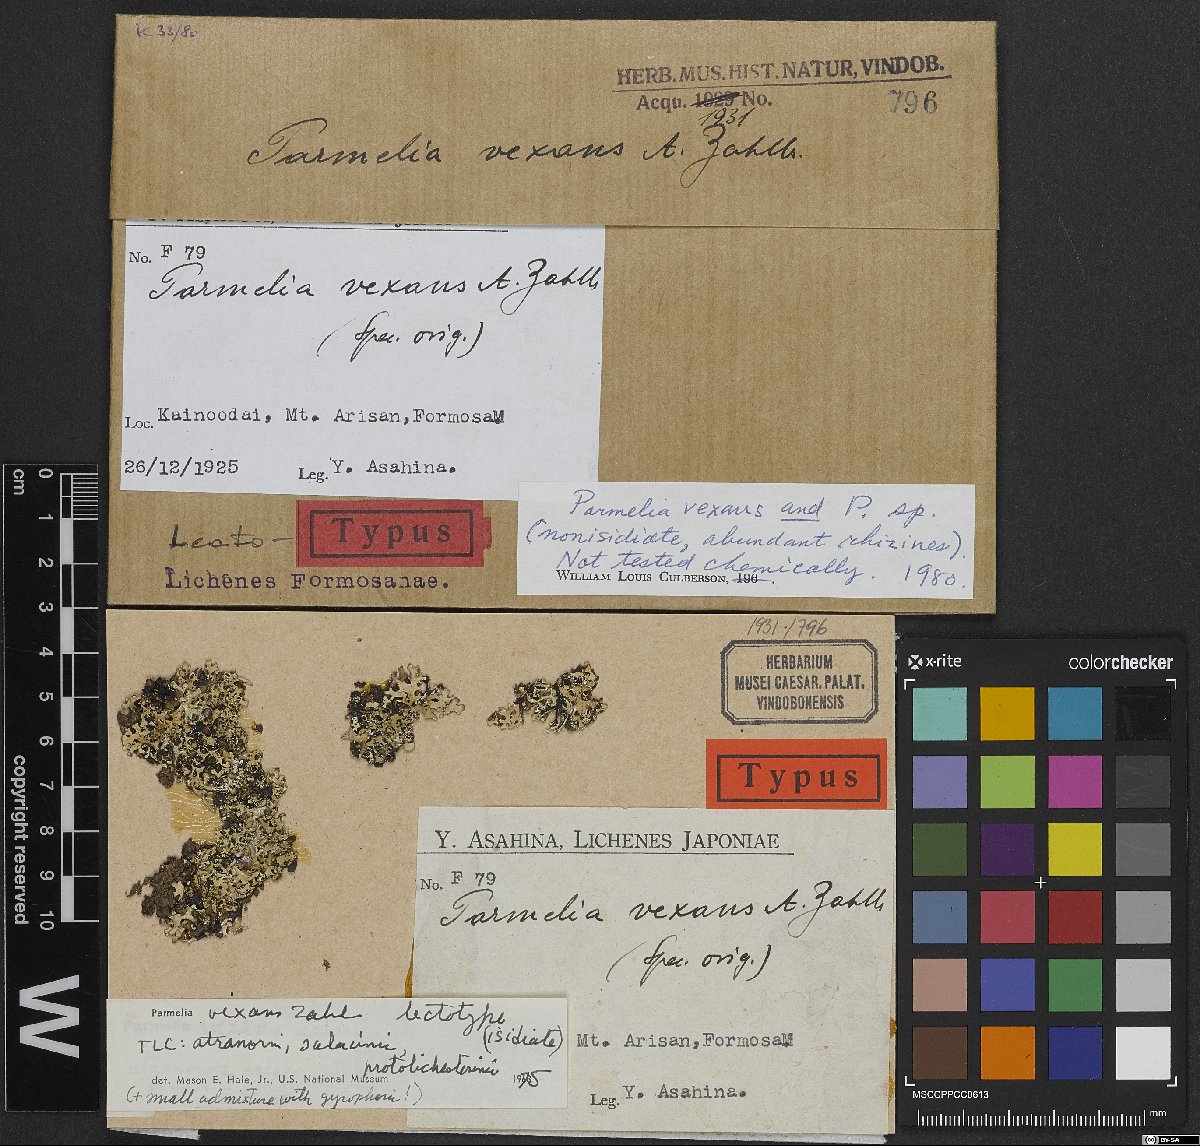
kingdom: Fungi
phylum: Ascomycota
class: Lecanoromycetes
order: Lecanorales
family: Parmeliaceae
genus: Hypotrachyna
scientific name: Hypotrachyna vexans
